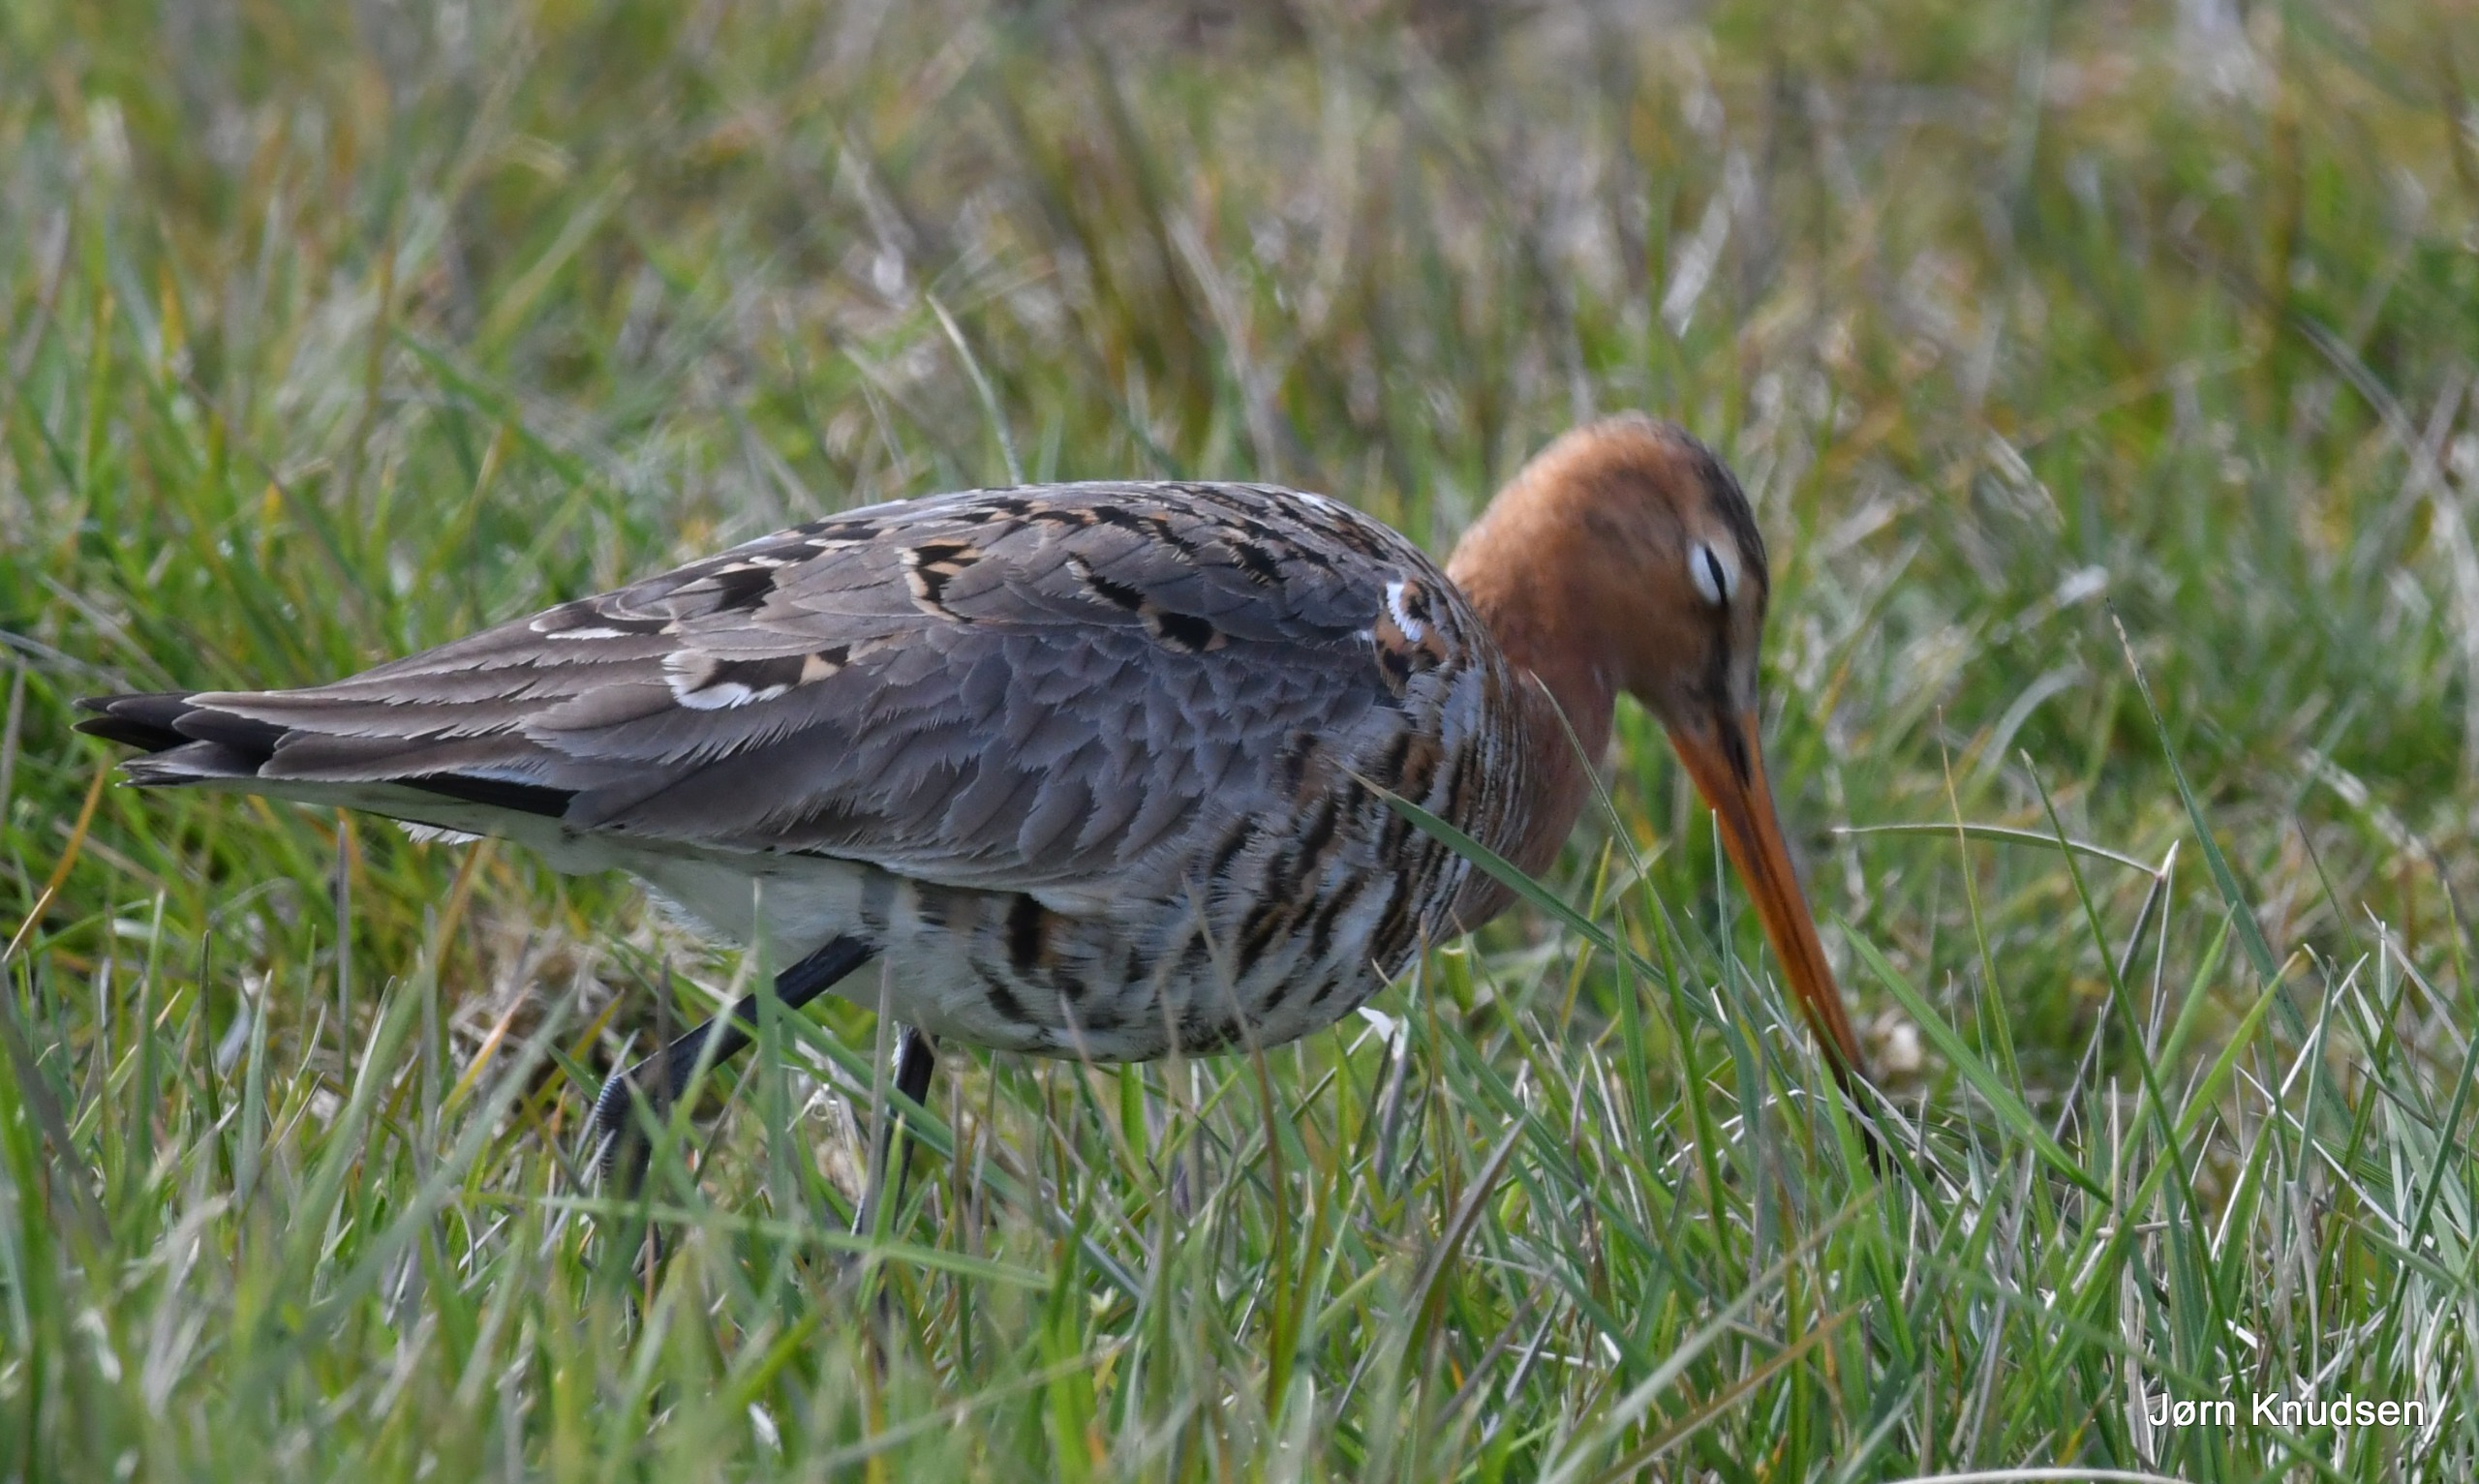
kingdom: Animalia
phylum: Chordata
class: Aves
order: Charadriiformes
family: Scolopacidae
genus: Limosa
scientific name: Limosa limosa
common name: Stor kobbersneppe
